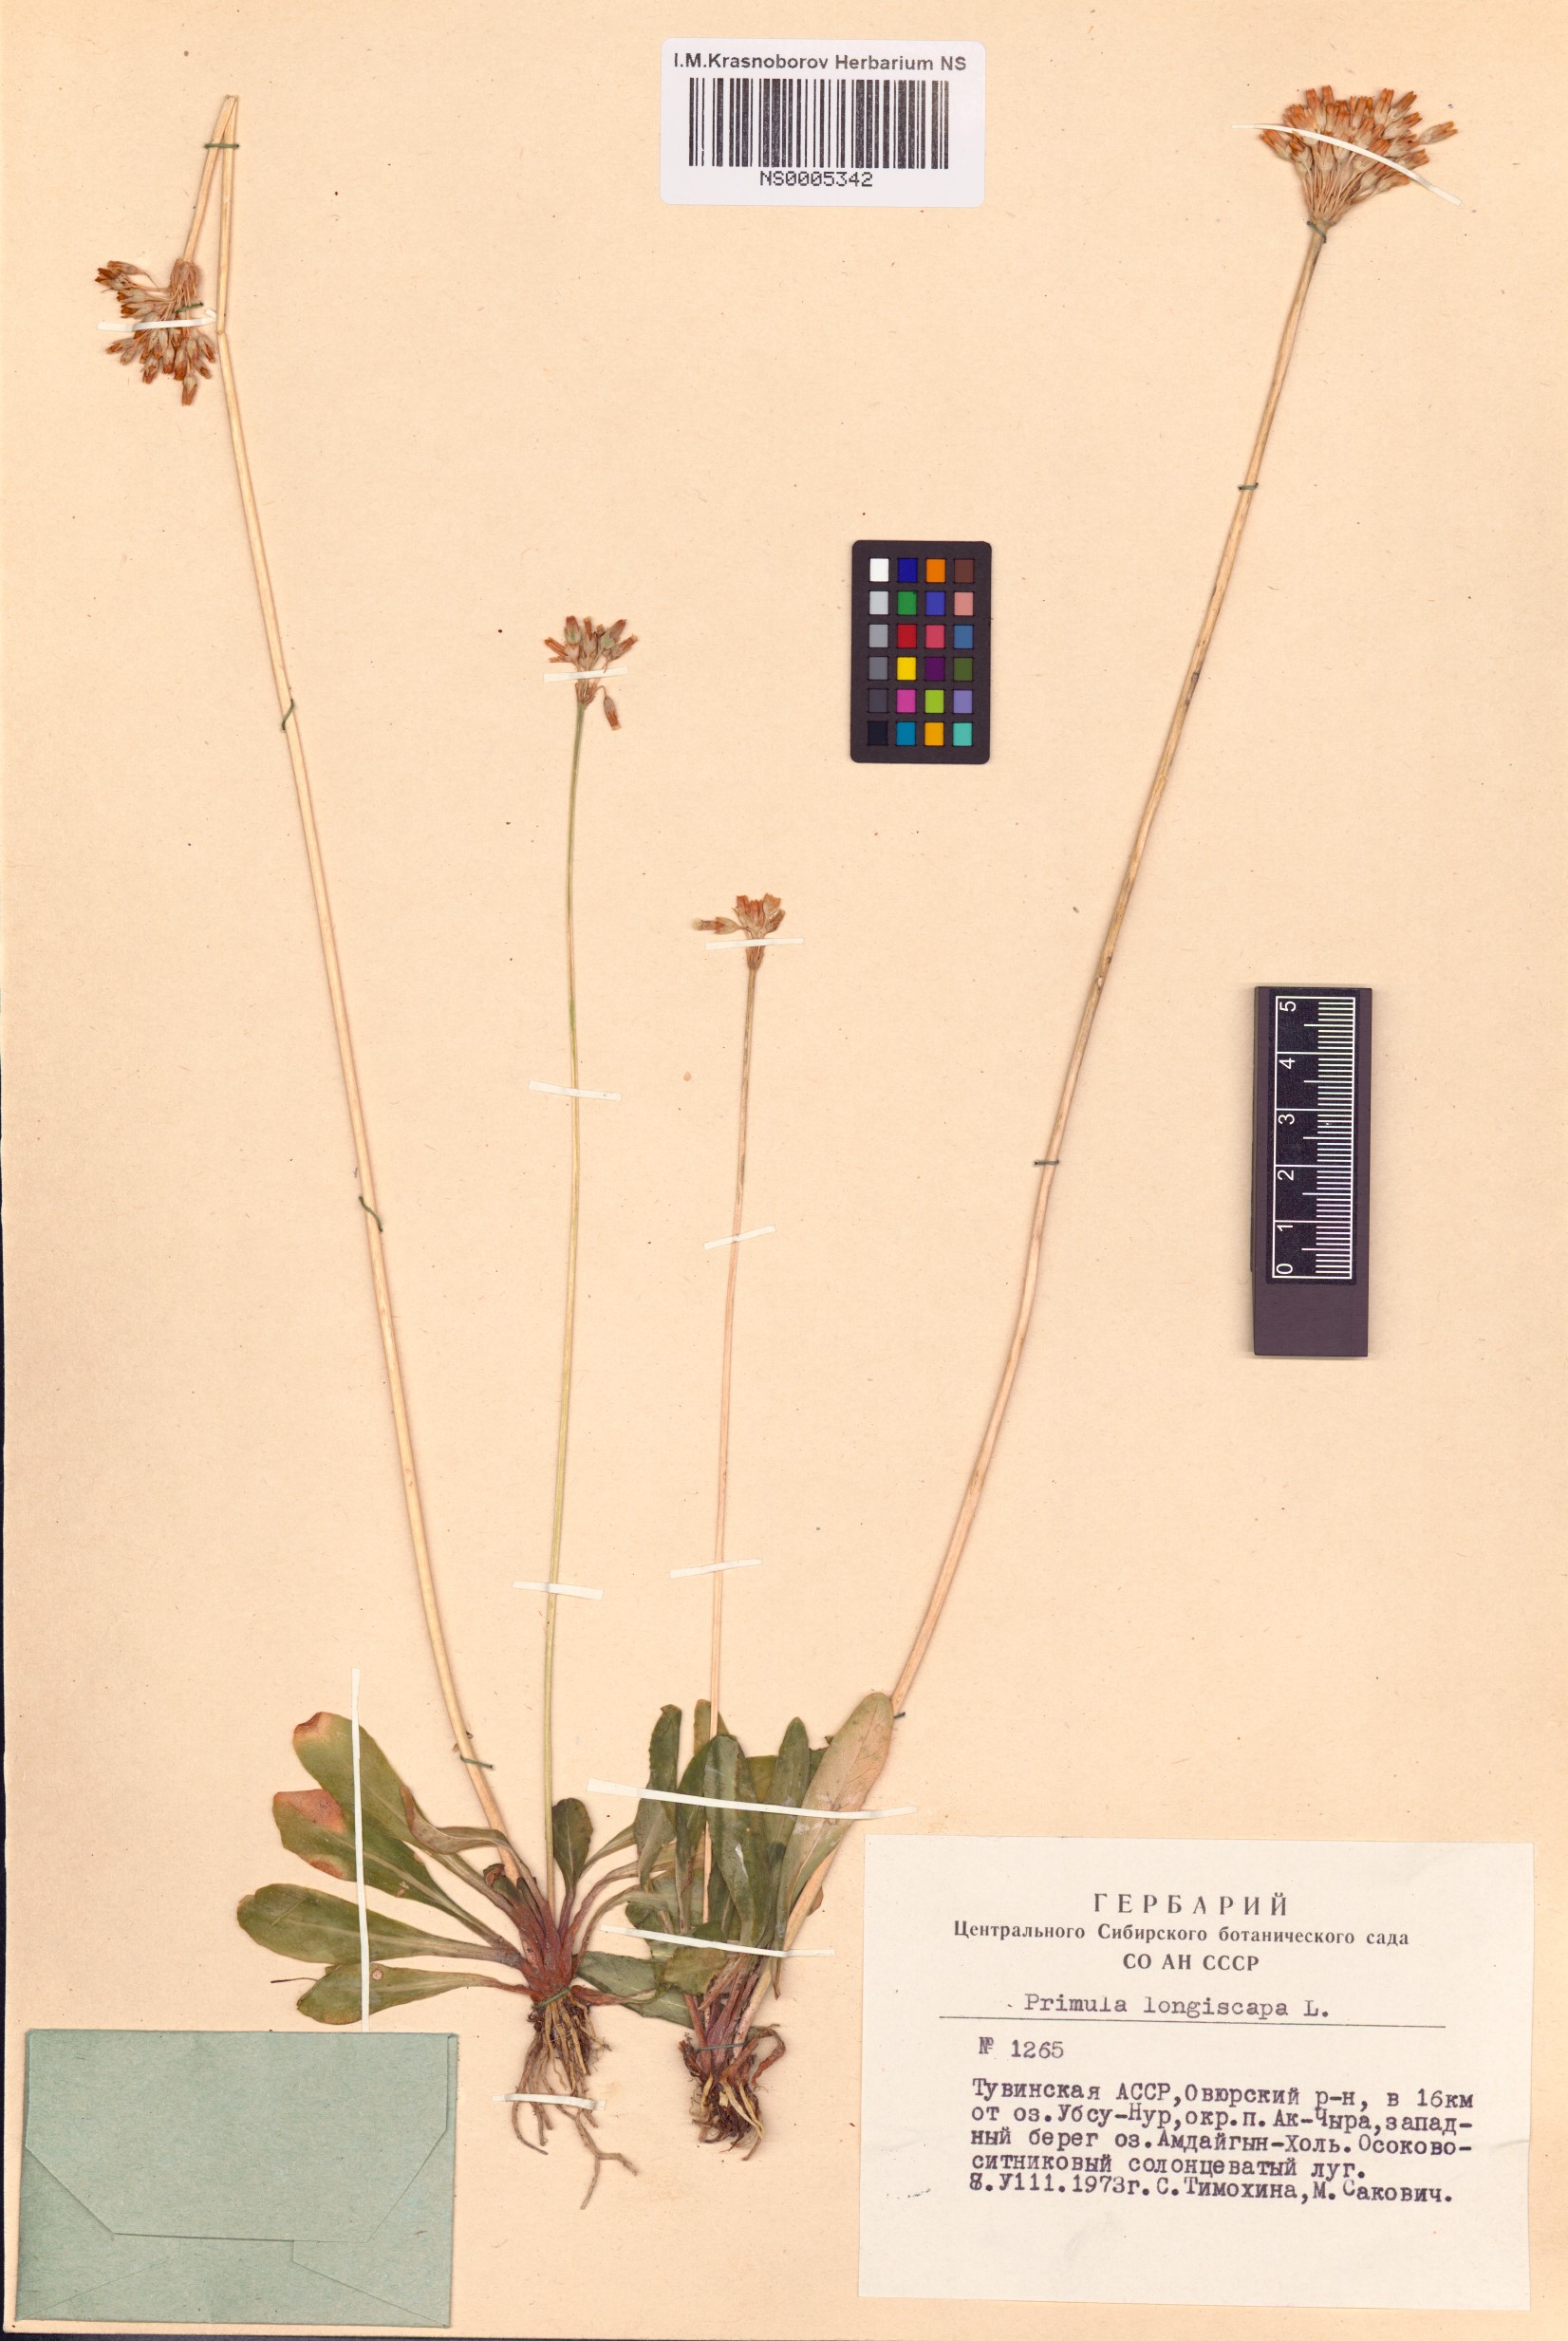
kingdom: Plantae
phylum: Tracheophyta
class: Magnoliopsida
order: Ericales
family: Primulaceae
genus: Primula
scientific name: Primula longiscapa
